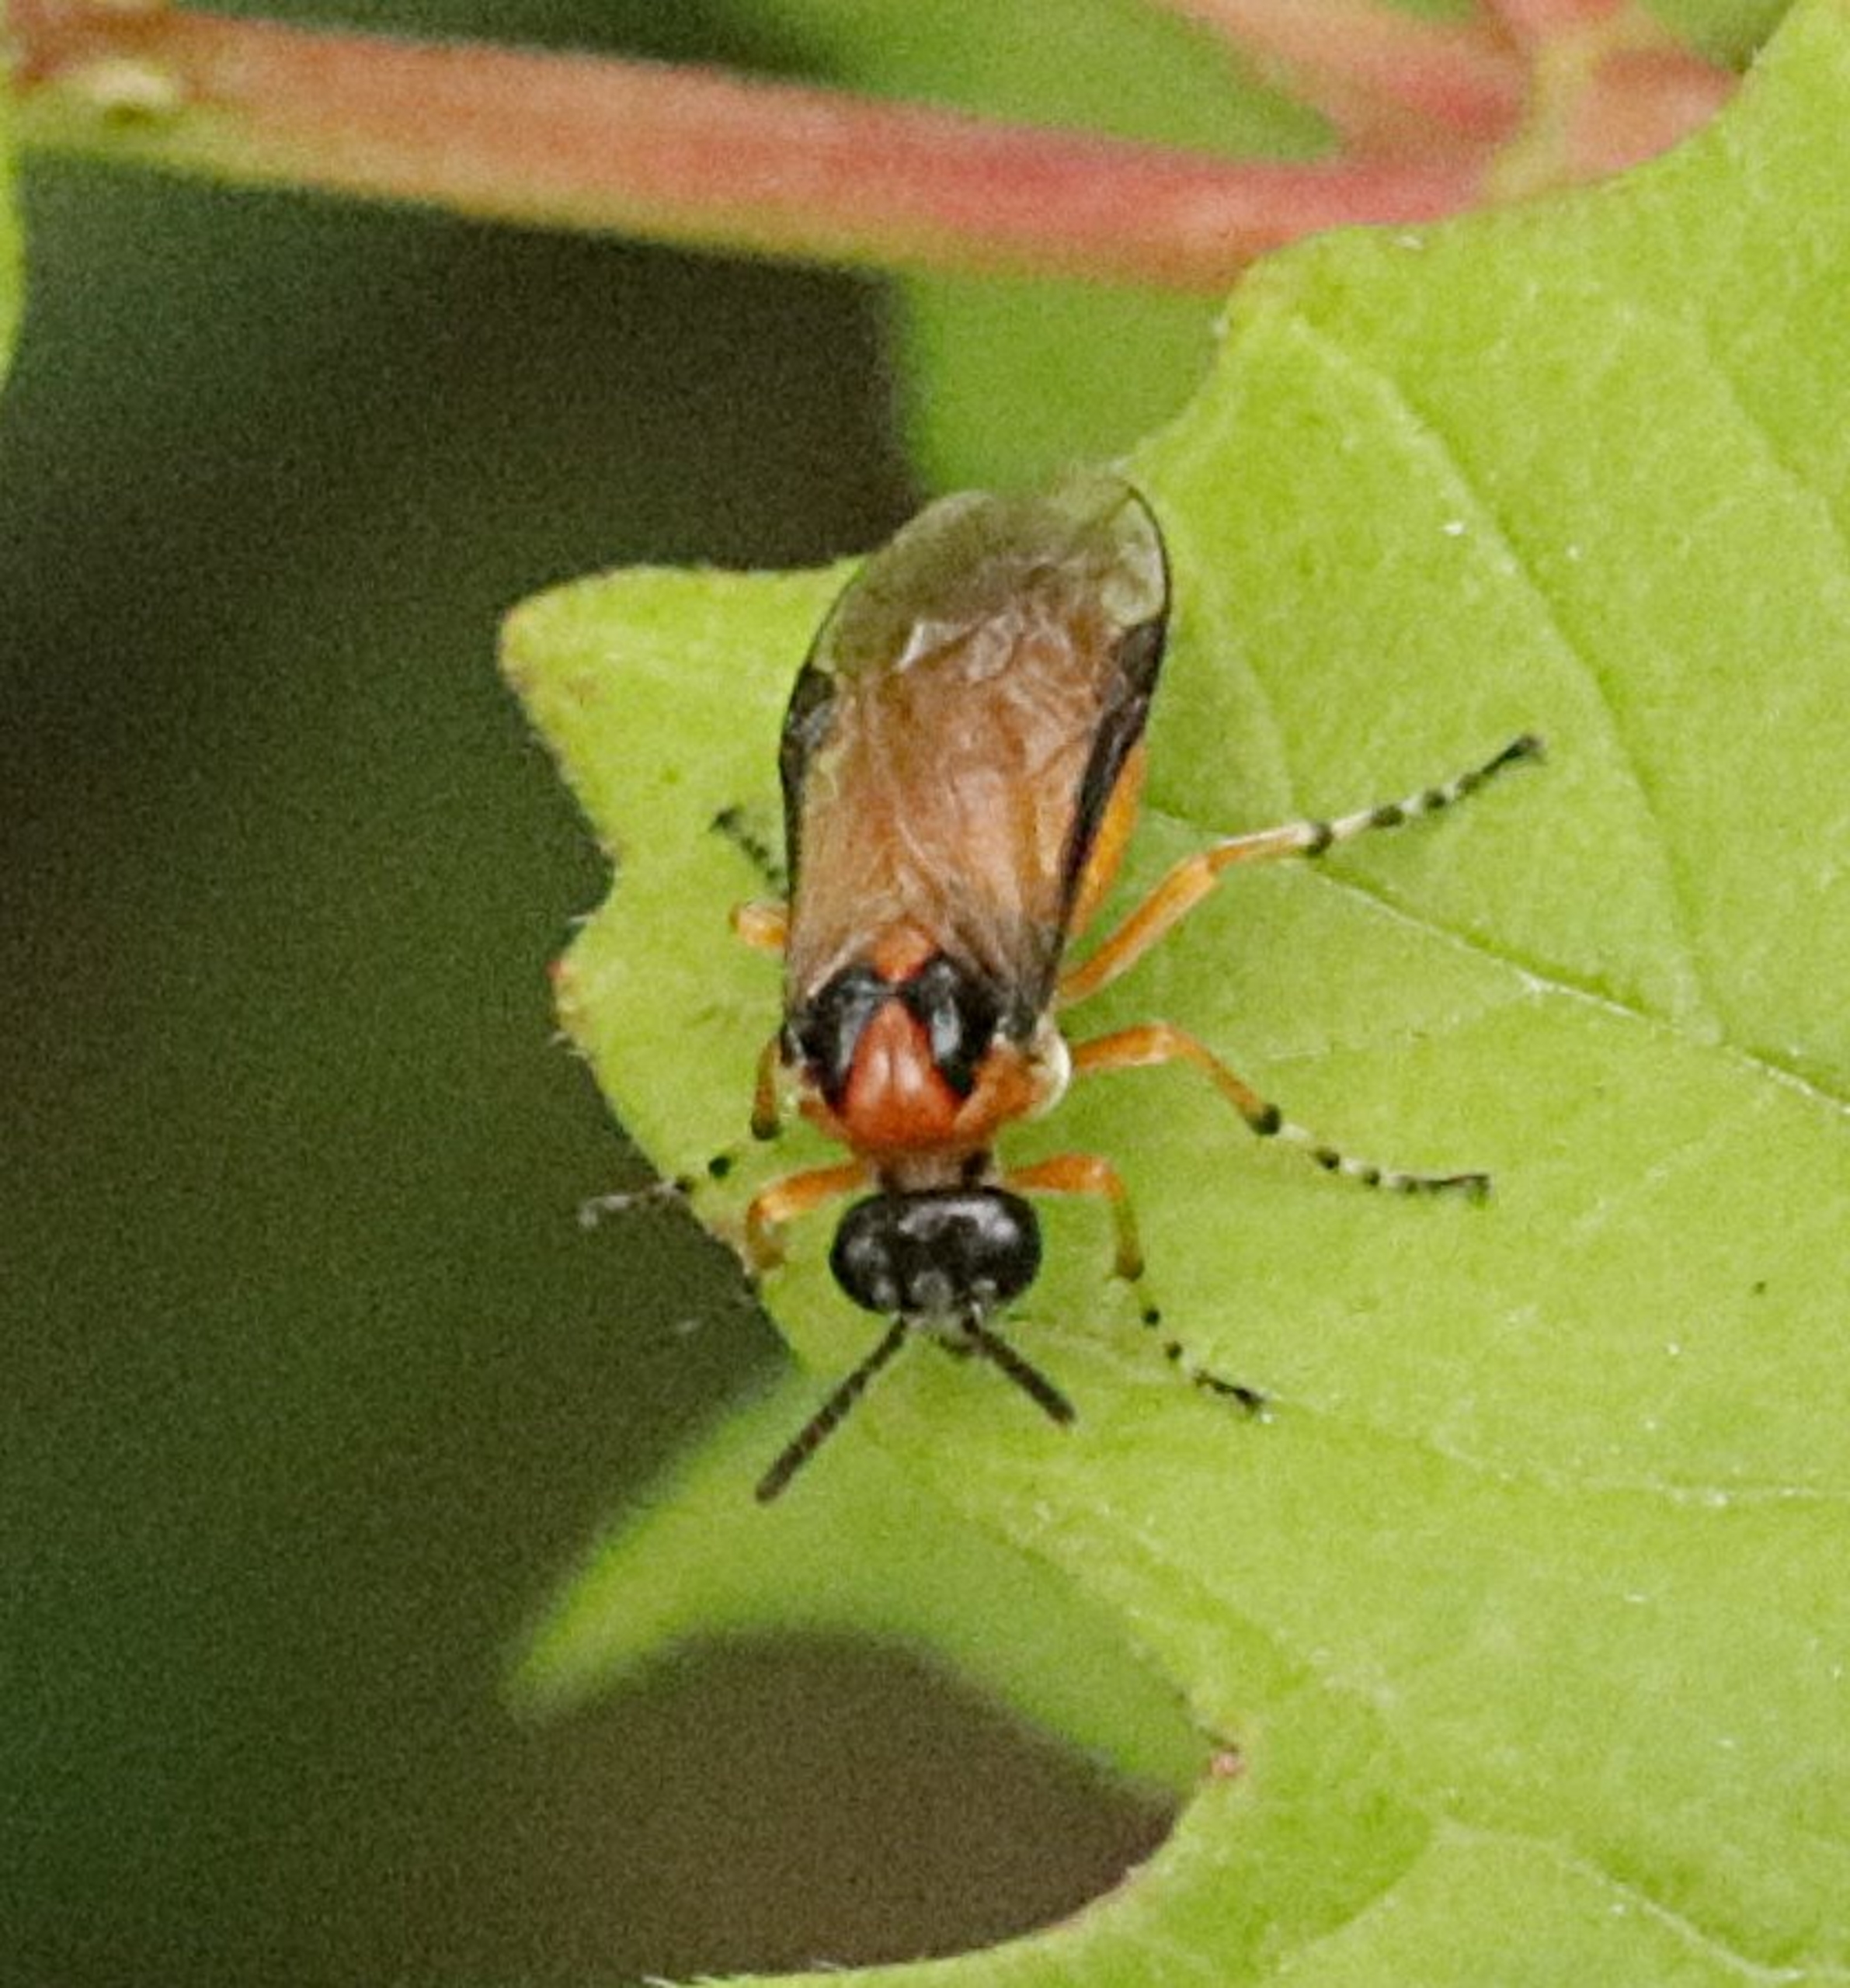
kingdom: Animalia
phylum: Arthropoda
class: Insecta
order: Hymenoptera
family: Tenthredinidae
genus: Athalia
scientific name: Athalia rosae
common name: Kålbladhveps
